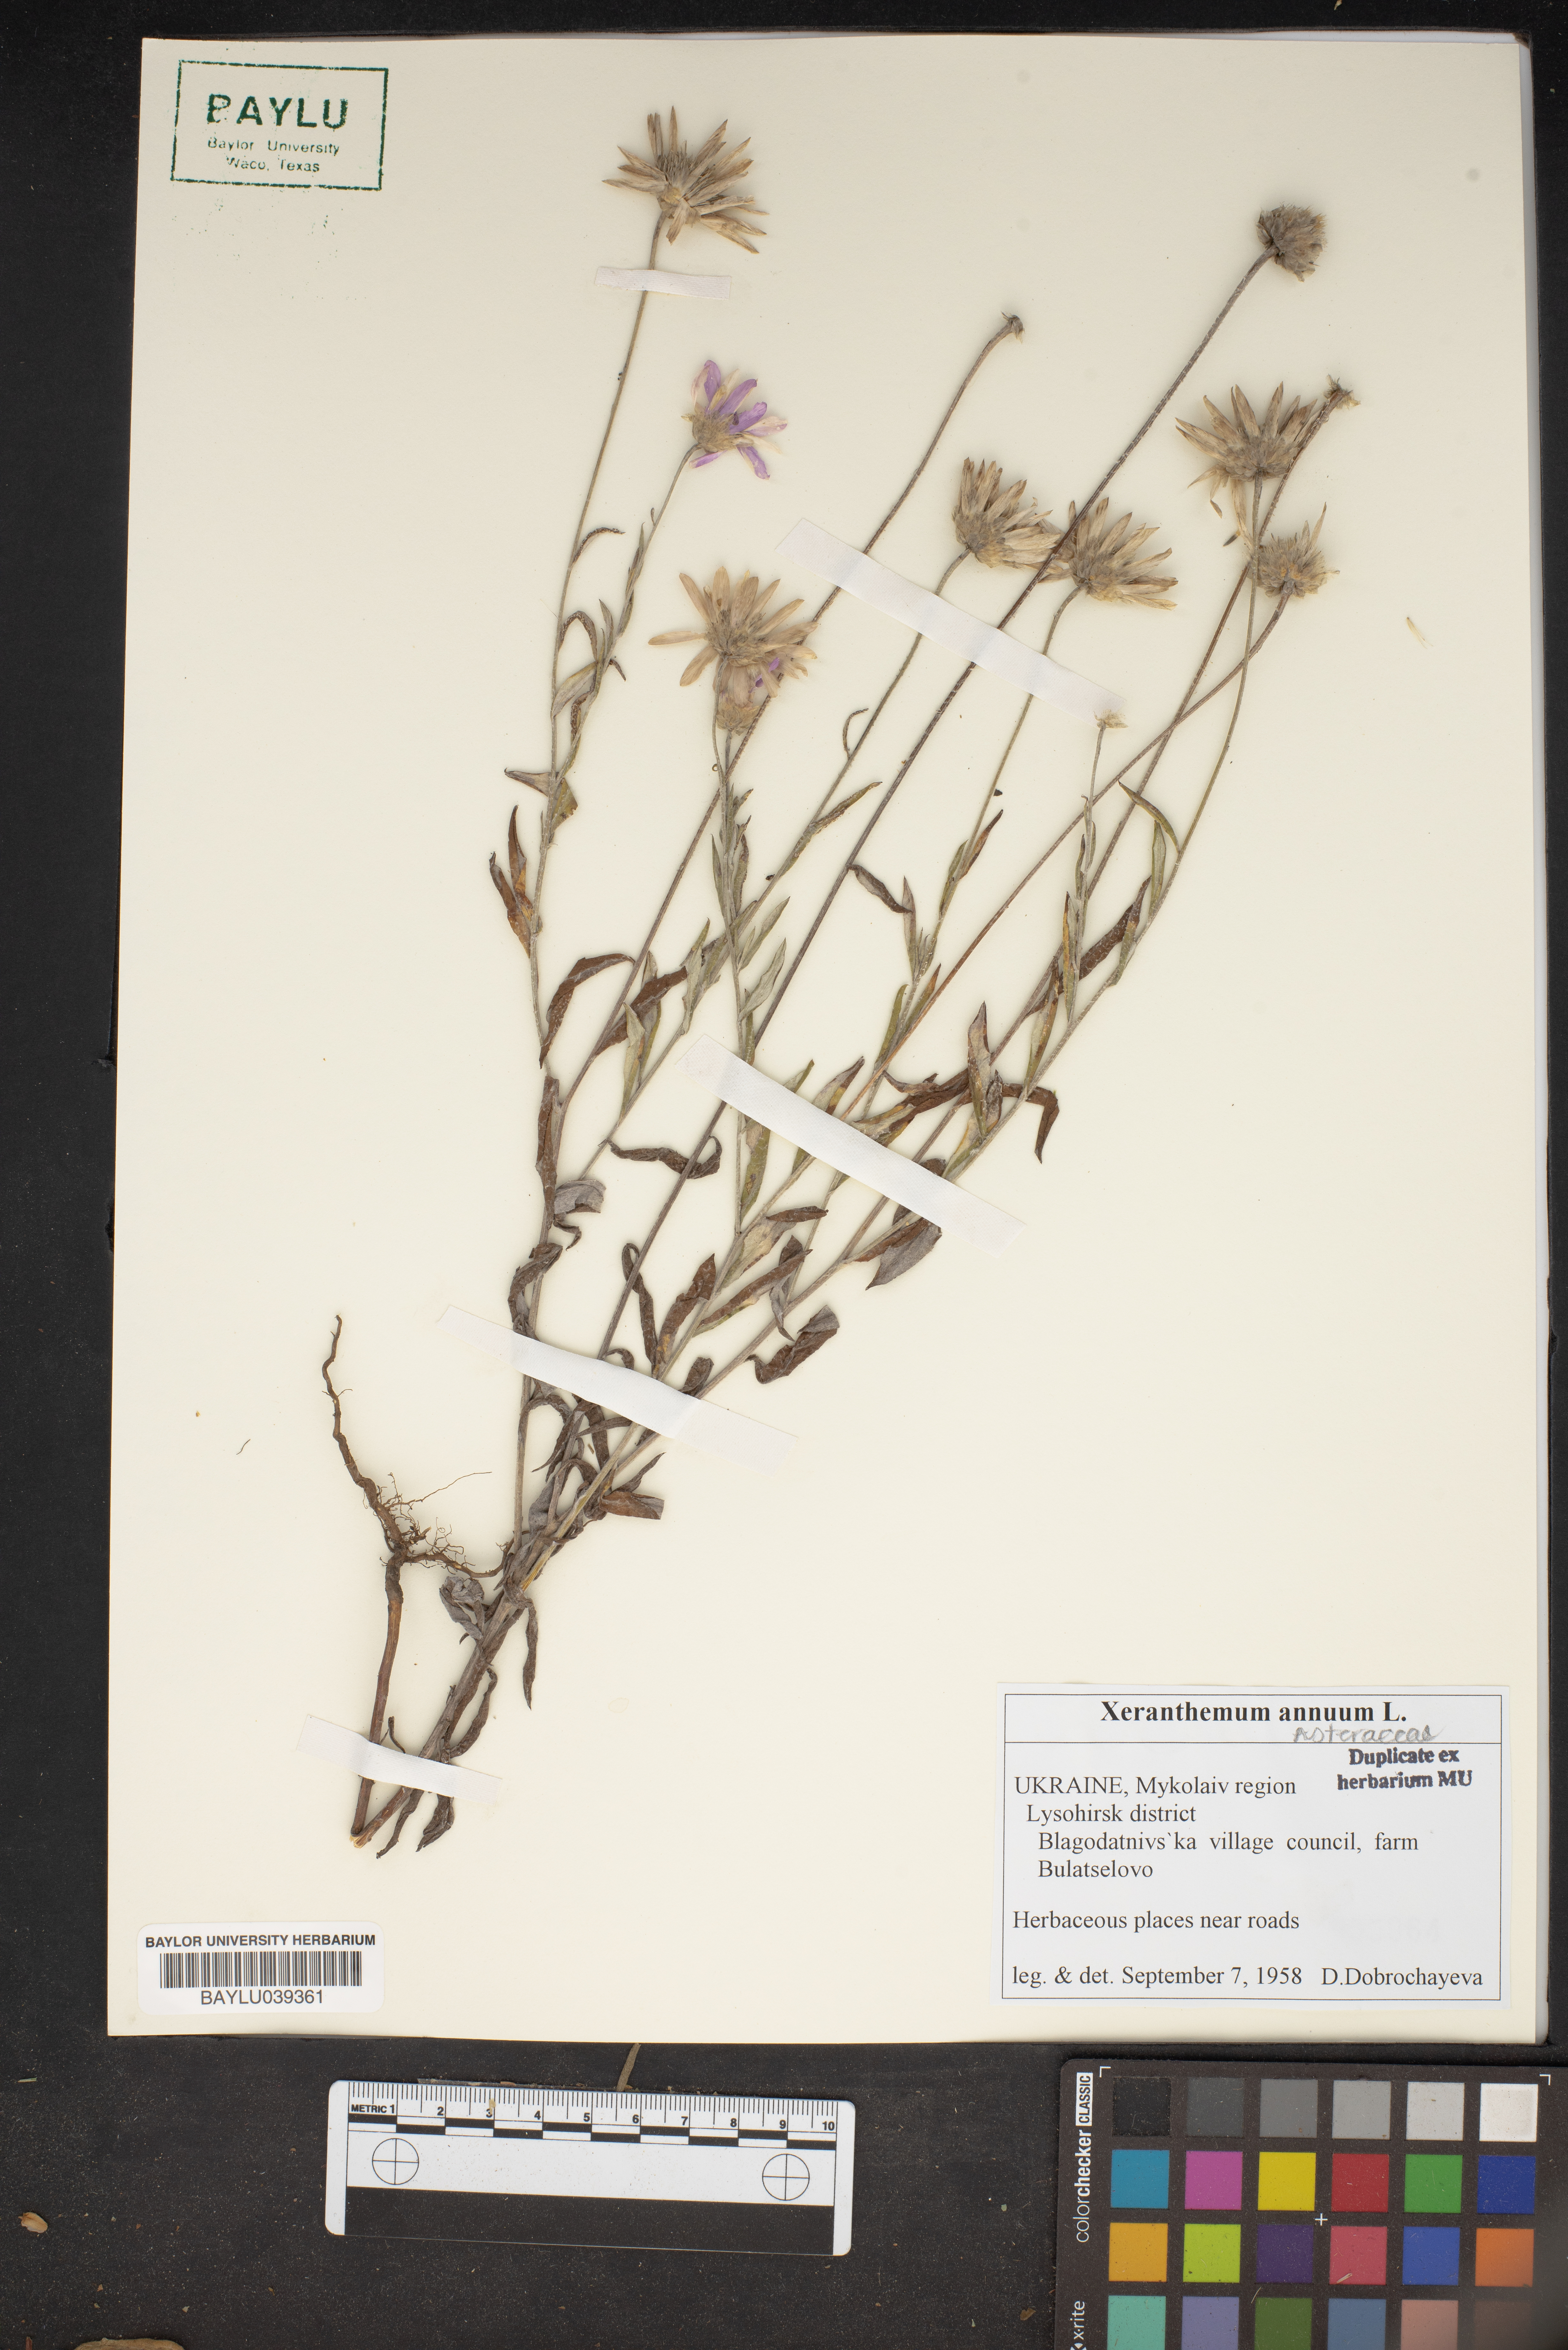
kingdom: Plantae
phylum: Tracheophyta
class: Magnoliopsida
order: Asterales
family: Asteraceae
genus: Xeranthemum
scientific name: Xeranthemum annuum
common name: Immortelle
